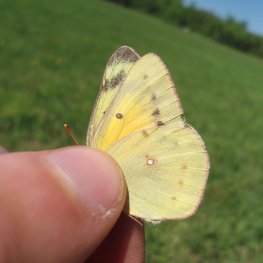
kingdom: Animalia
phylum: Arthropoda
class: Insecta
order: Lepidoptera
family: Pieridae
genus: Colias
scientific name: Colias eurytheme
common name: Orange Sulphur
